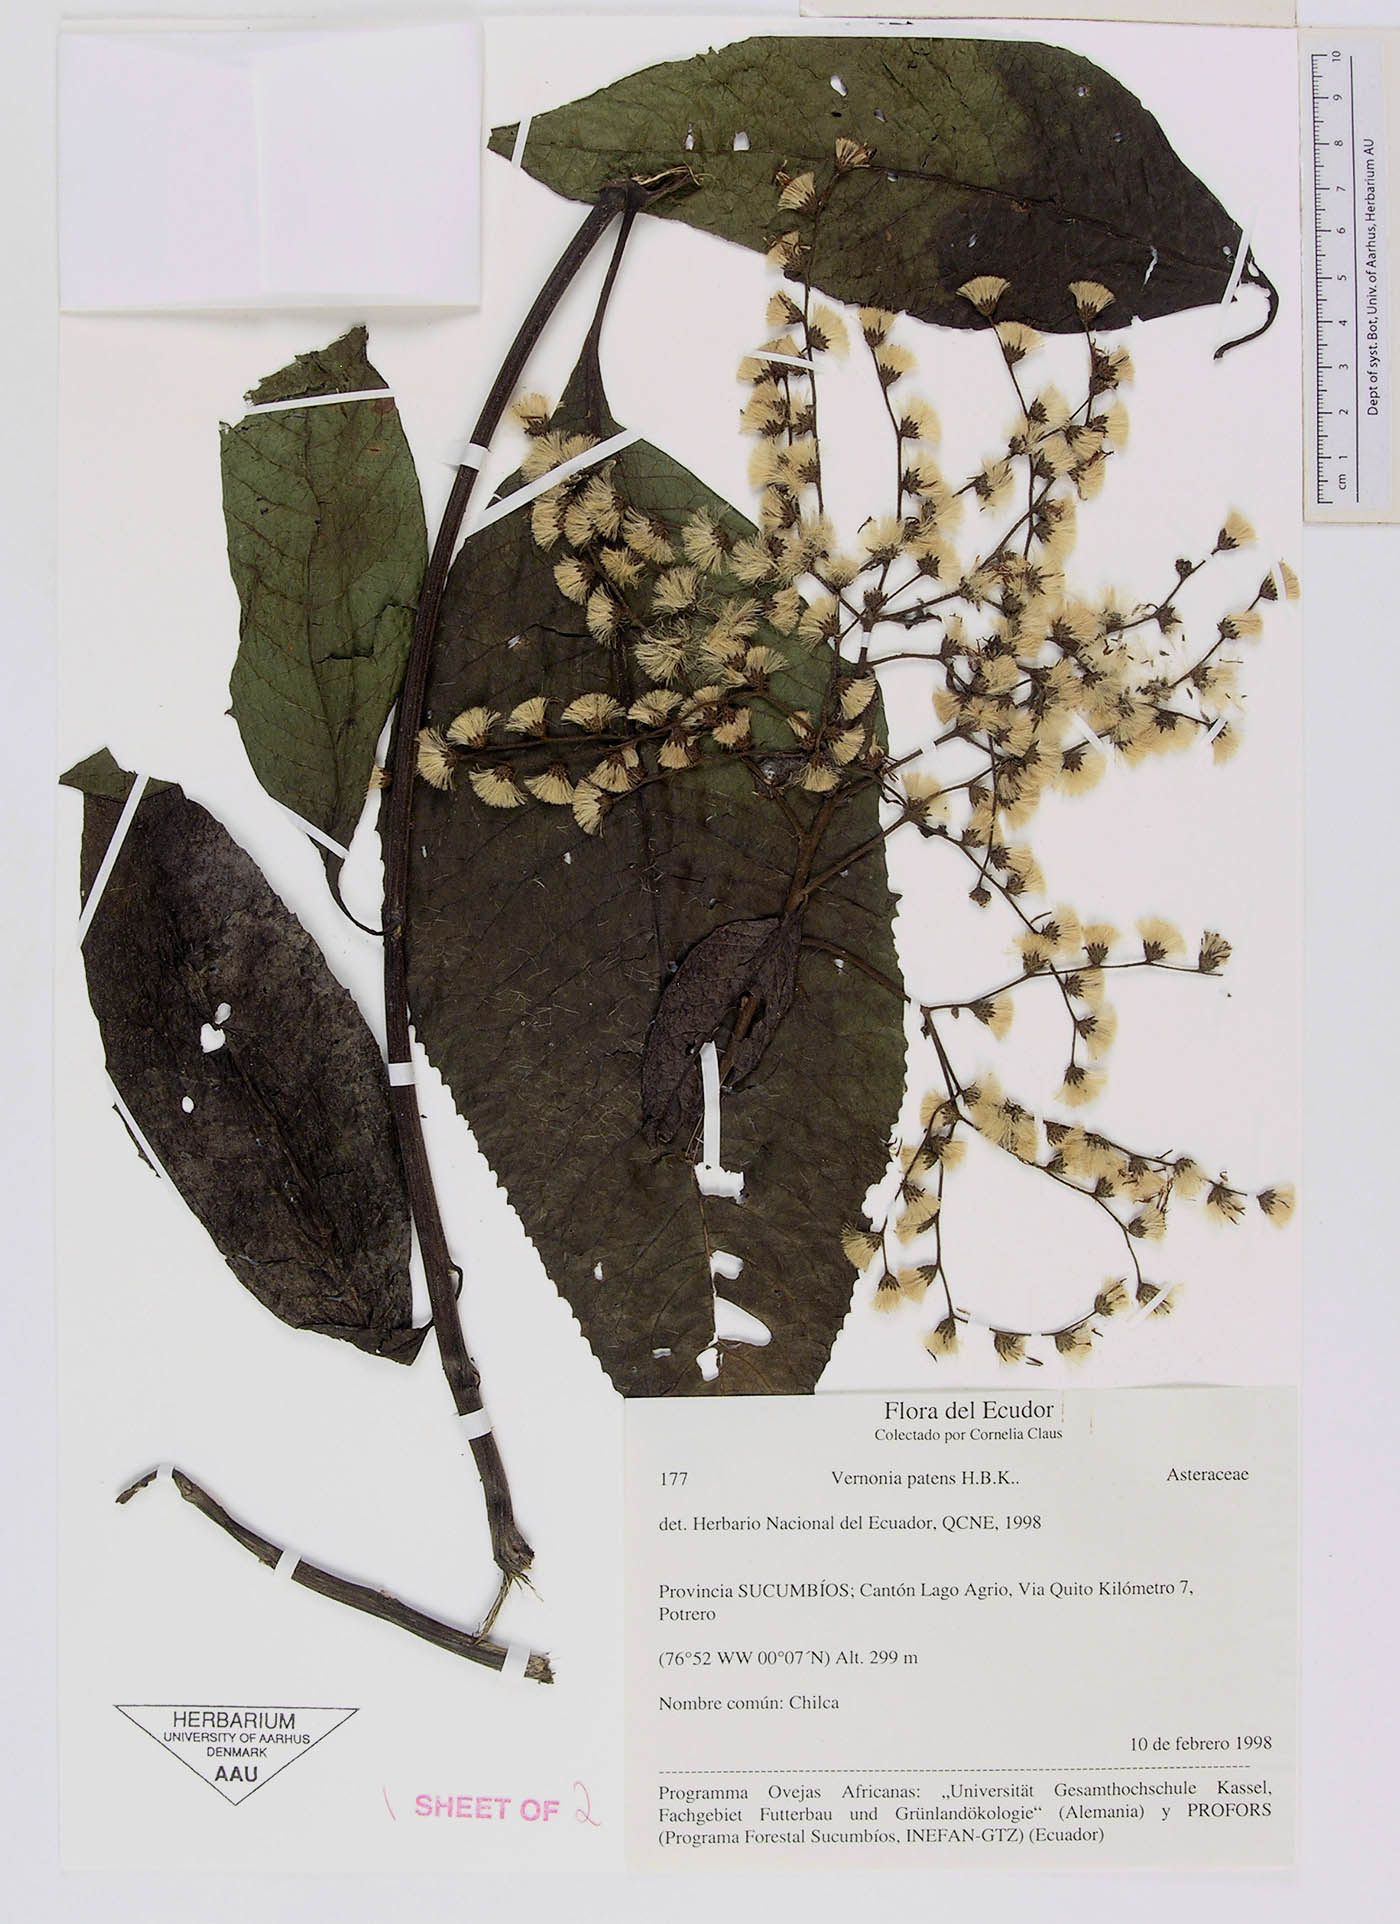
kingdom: Plantae
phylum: Tracheophyta
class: Magnoliopsida
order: Asterales
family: Asteraceae
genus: Vernonanthura
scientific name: Vernonanthura patens
